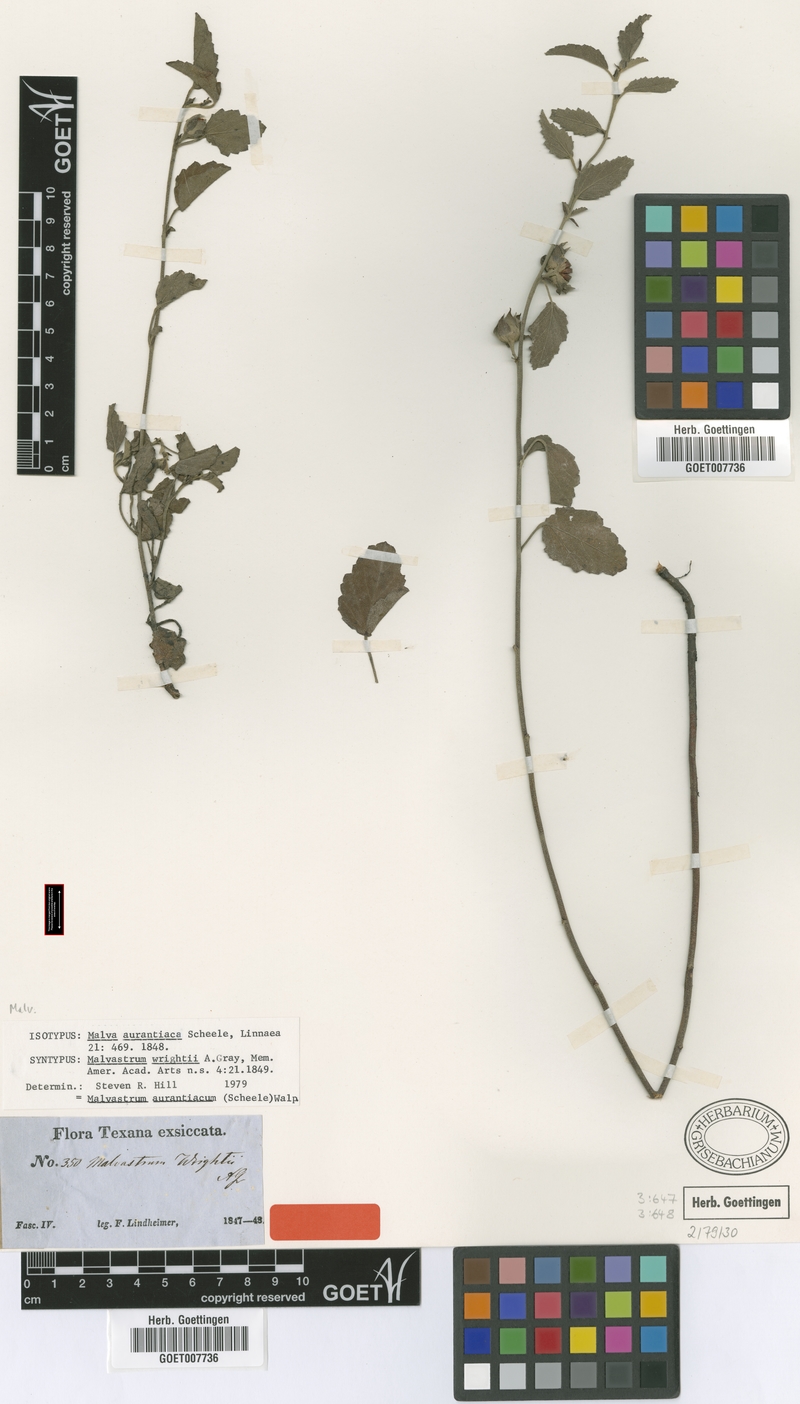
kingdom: Plantae
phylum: Tracheophyta
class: Magnoliopsida
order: Malvales
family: Malvaceae
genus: Malvastrum
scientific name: Malvastrum aurantiacum
